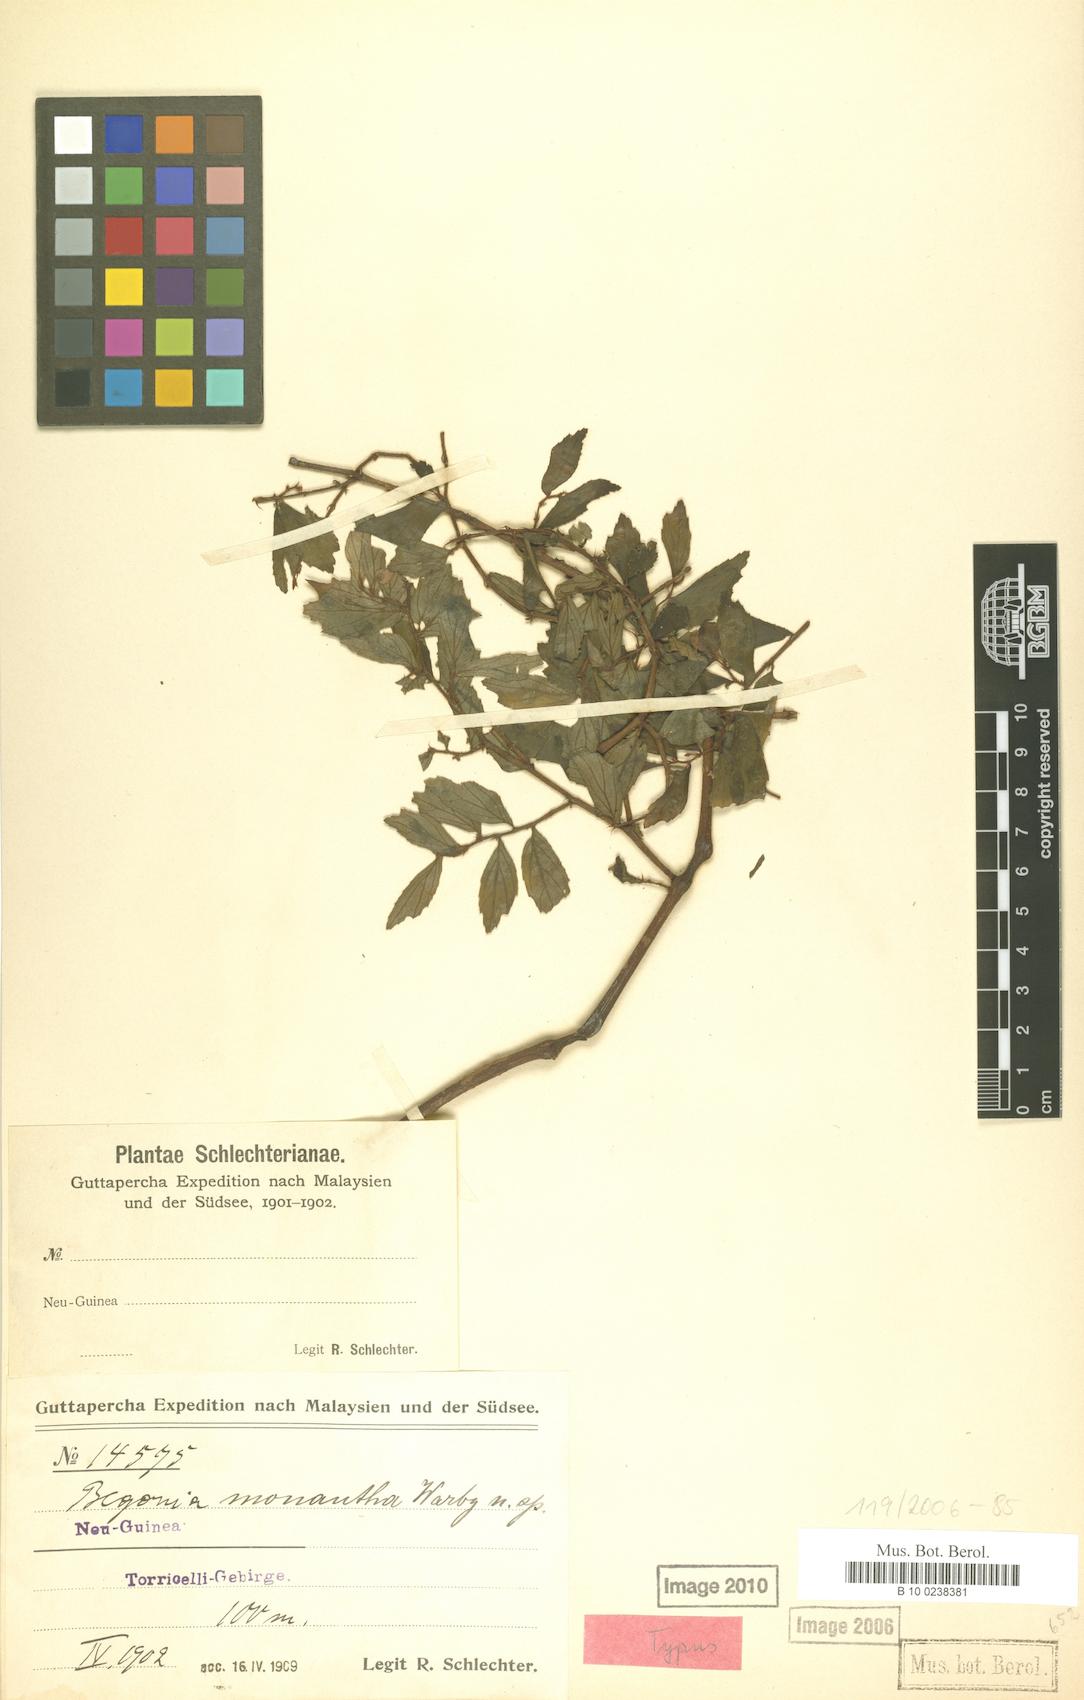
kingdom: Plantae
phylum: Tracheophyta
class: Magnoliopsida
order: Cucurbitales
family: Begoniaceae
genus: Begonia
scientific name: Begonia monantha
